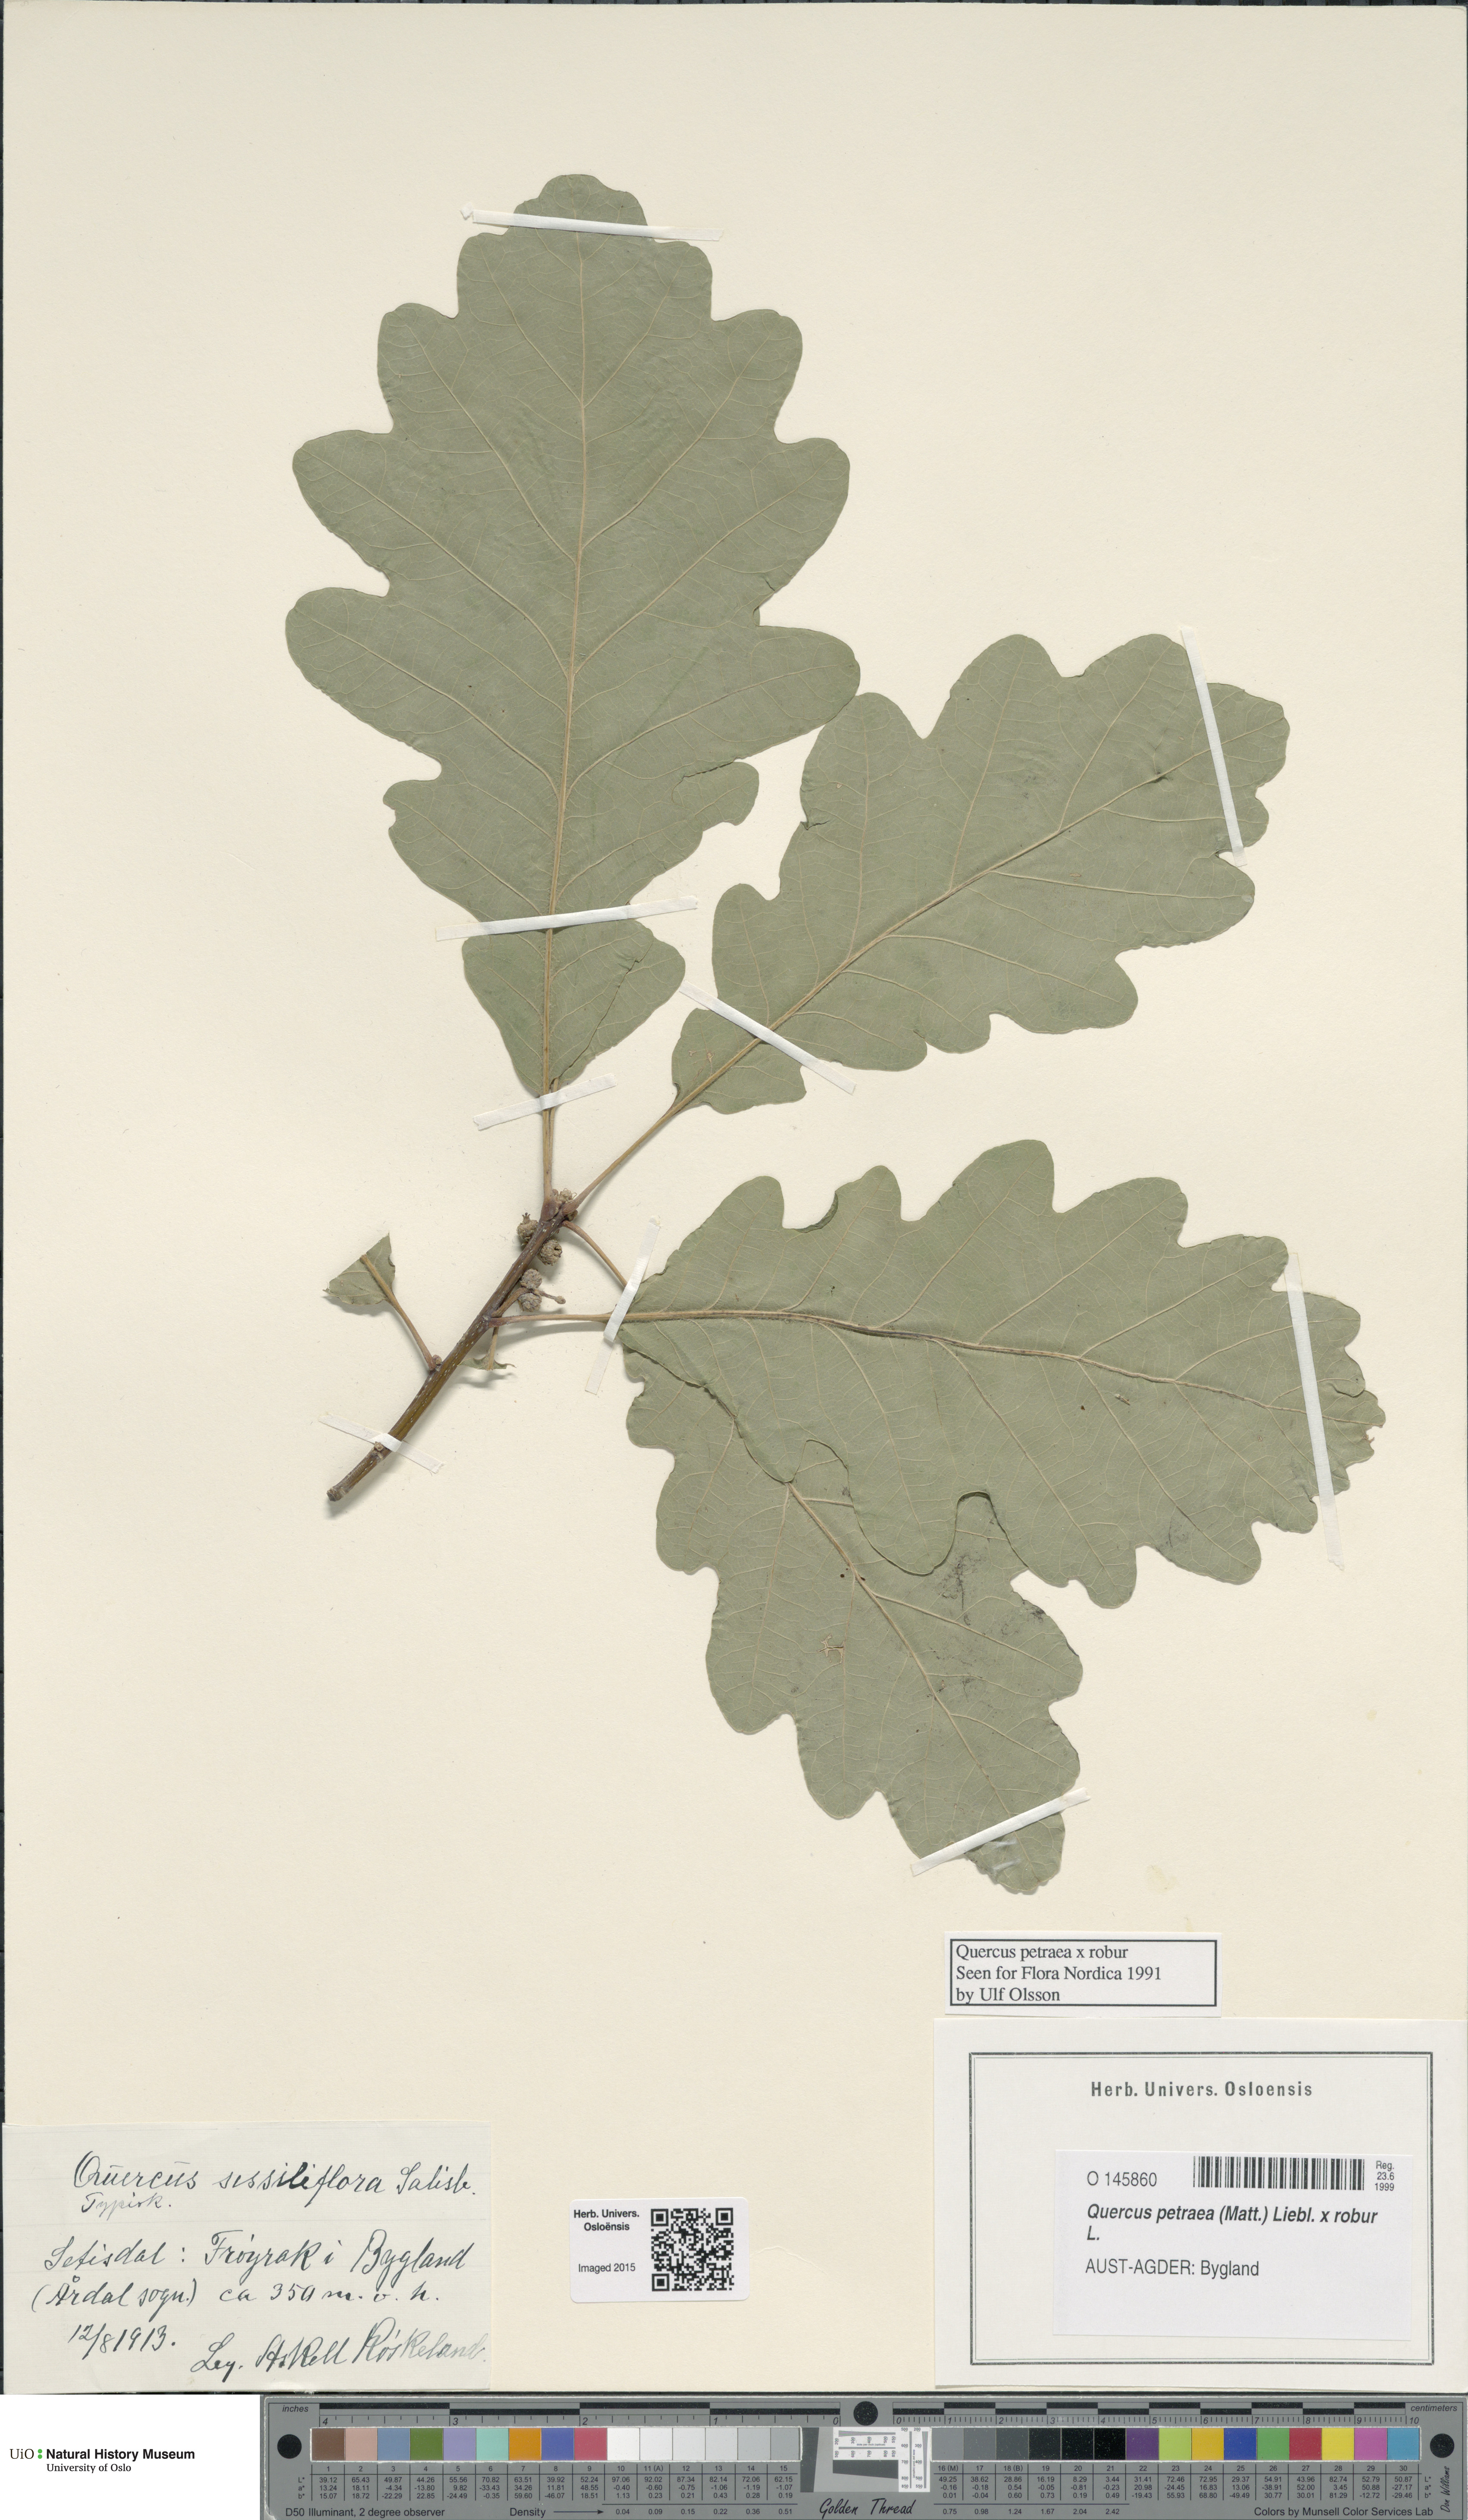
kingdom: Plantae
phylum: Tracheophyta
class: Magnoliopsida
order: Fagales
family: Fagaceae
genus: Quercus
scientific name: Quercus
